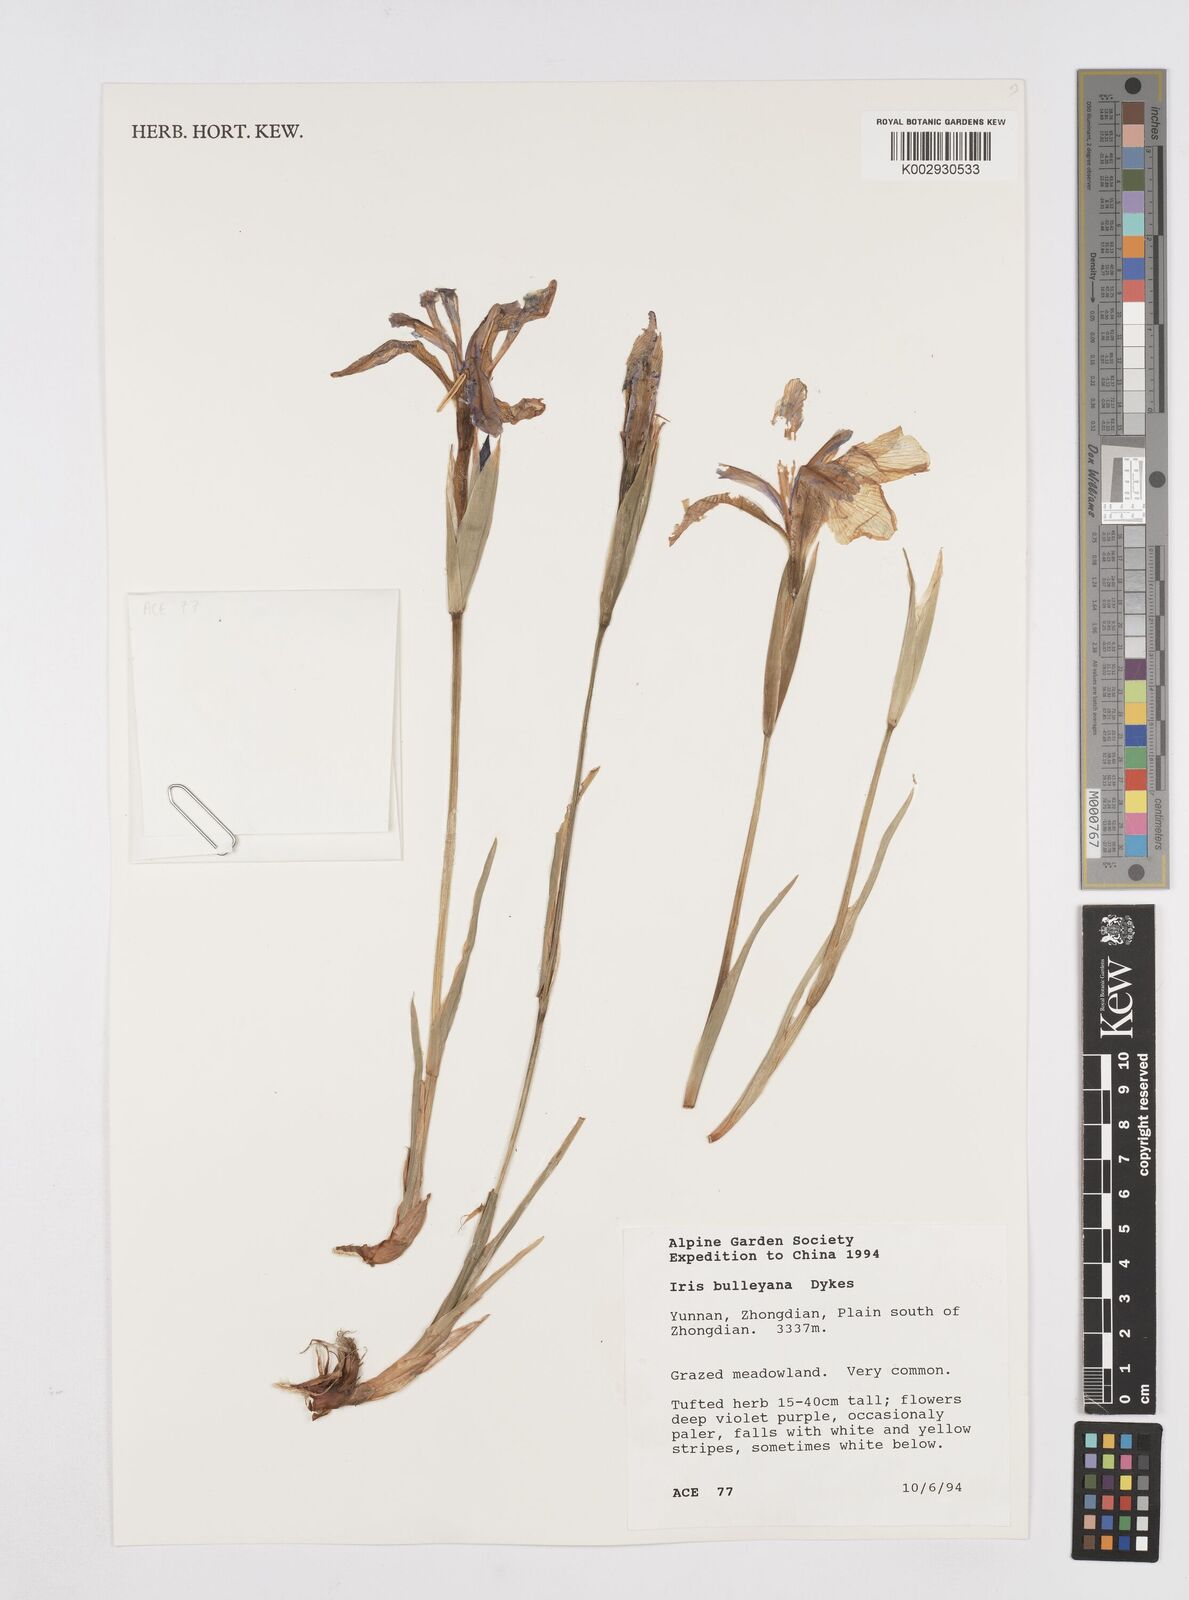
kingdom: Plantae
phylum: Tracheophyta
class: Liliopsida
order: Asparagales
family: Iridaceae
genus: Iris
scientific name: Iris bulleyana
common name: Southwest iris
